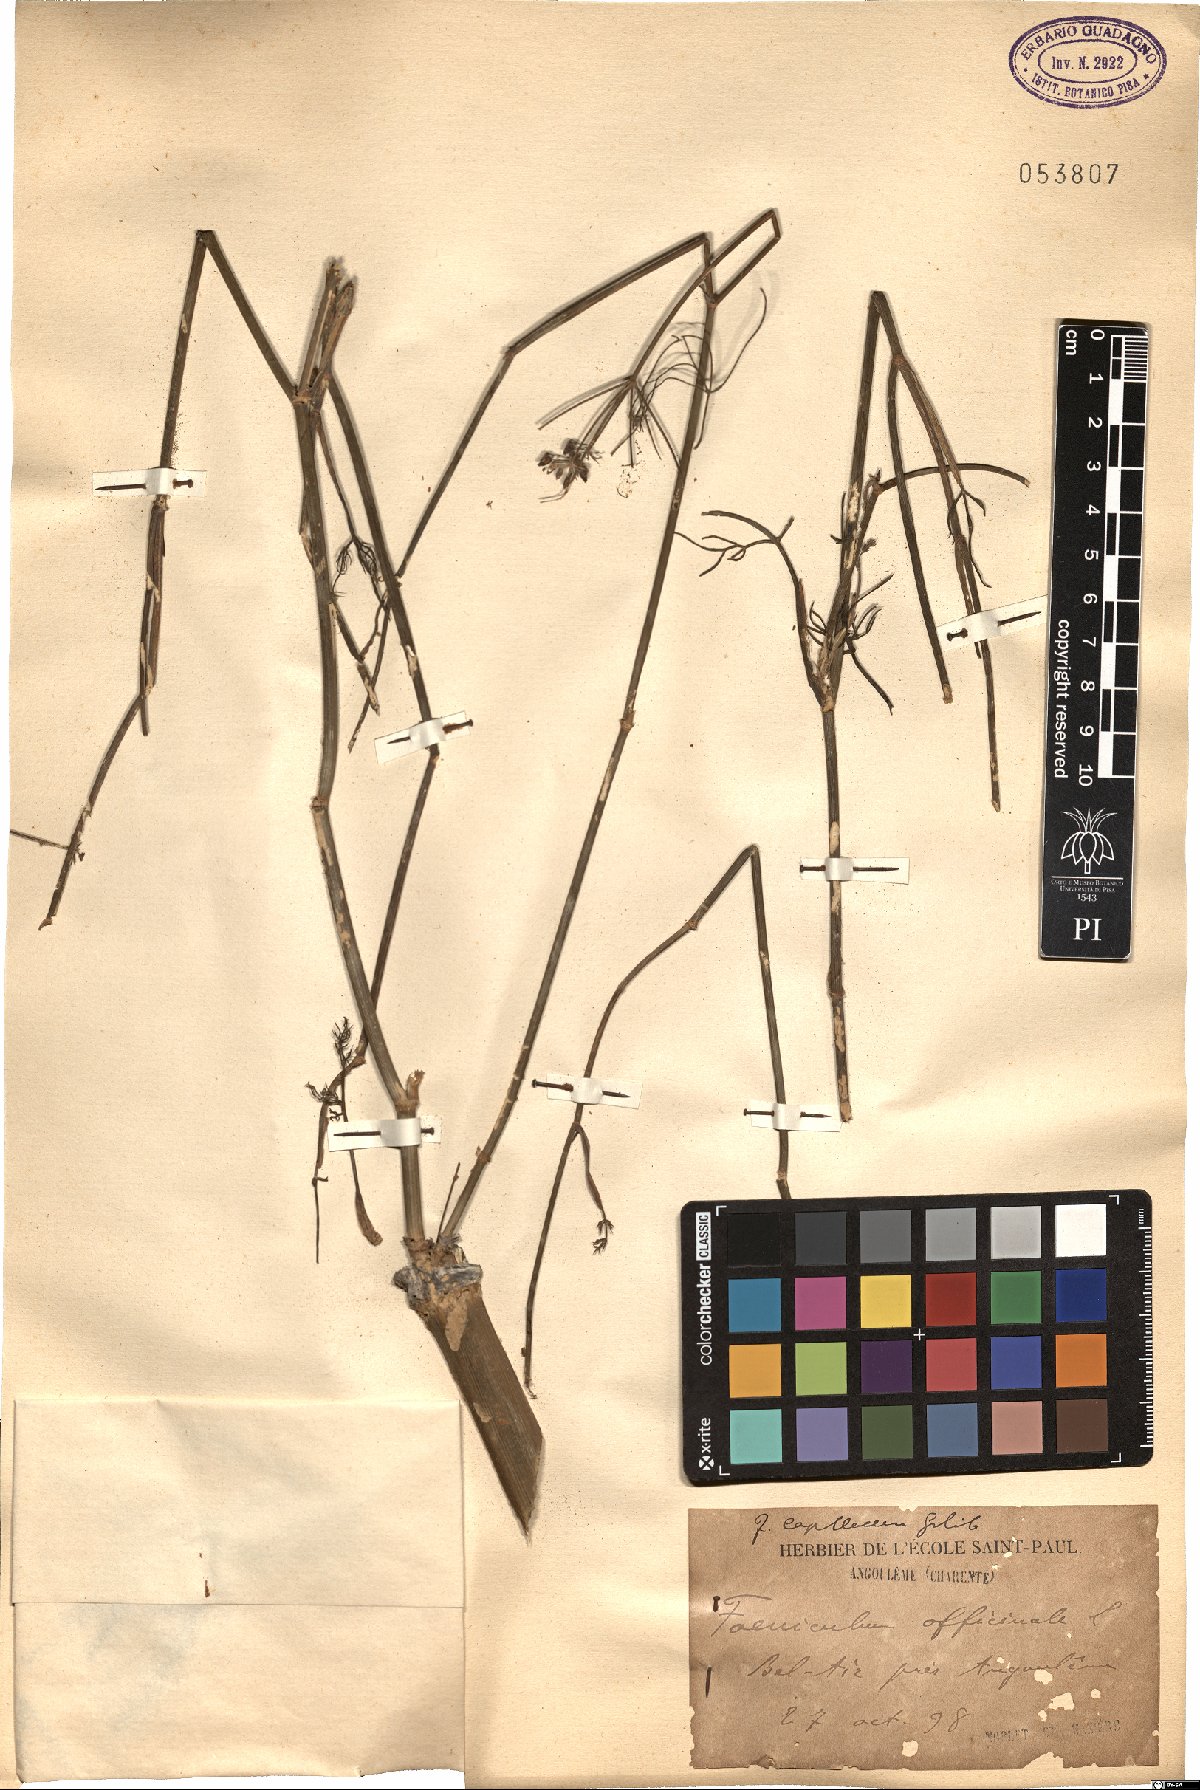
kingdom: Plantae
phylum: Tracheophyta
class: Magnoliopsida
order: Apiales
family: Apiaceae
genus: Foeniculum
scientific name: Foeniculum vulgare
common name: Fennel
